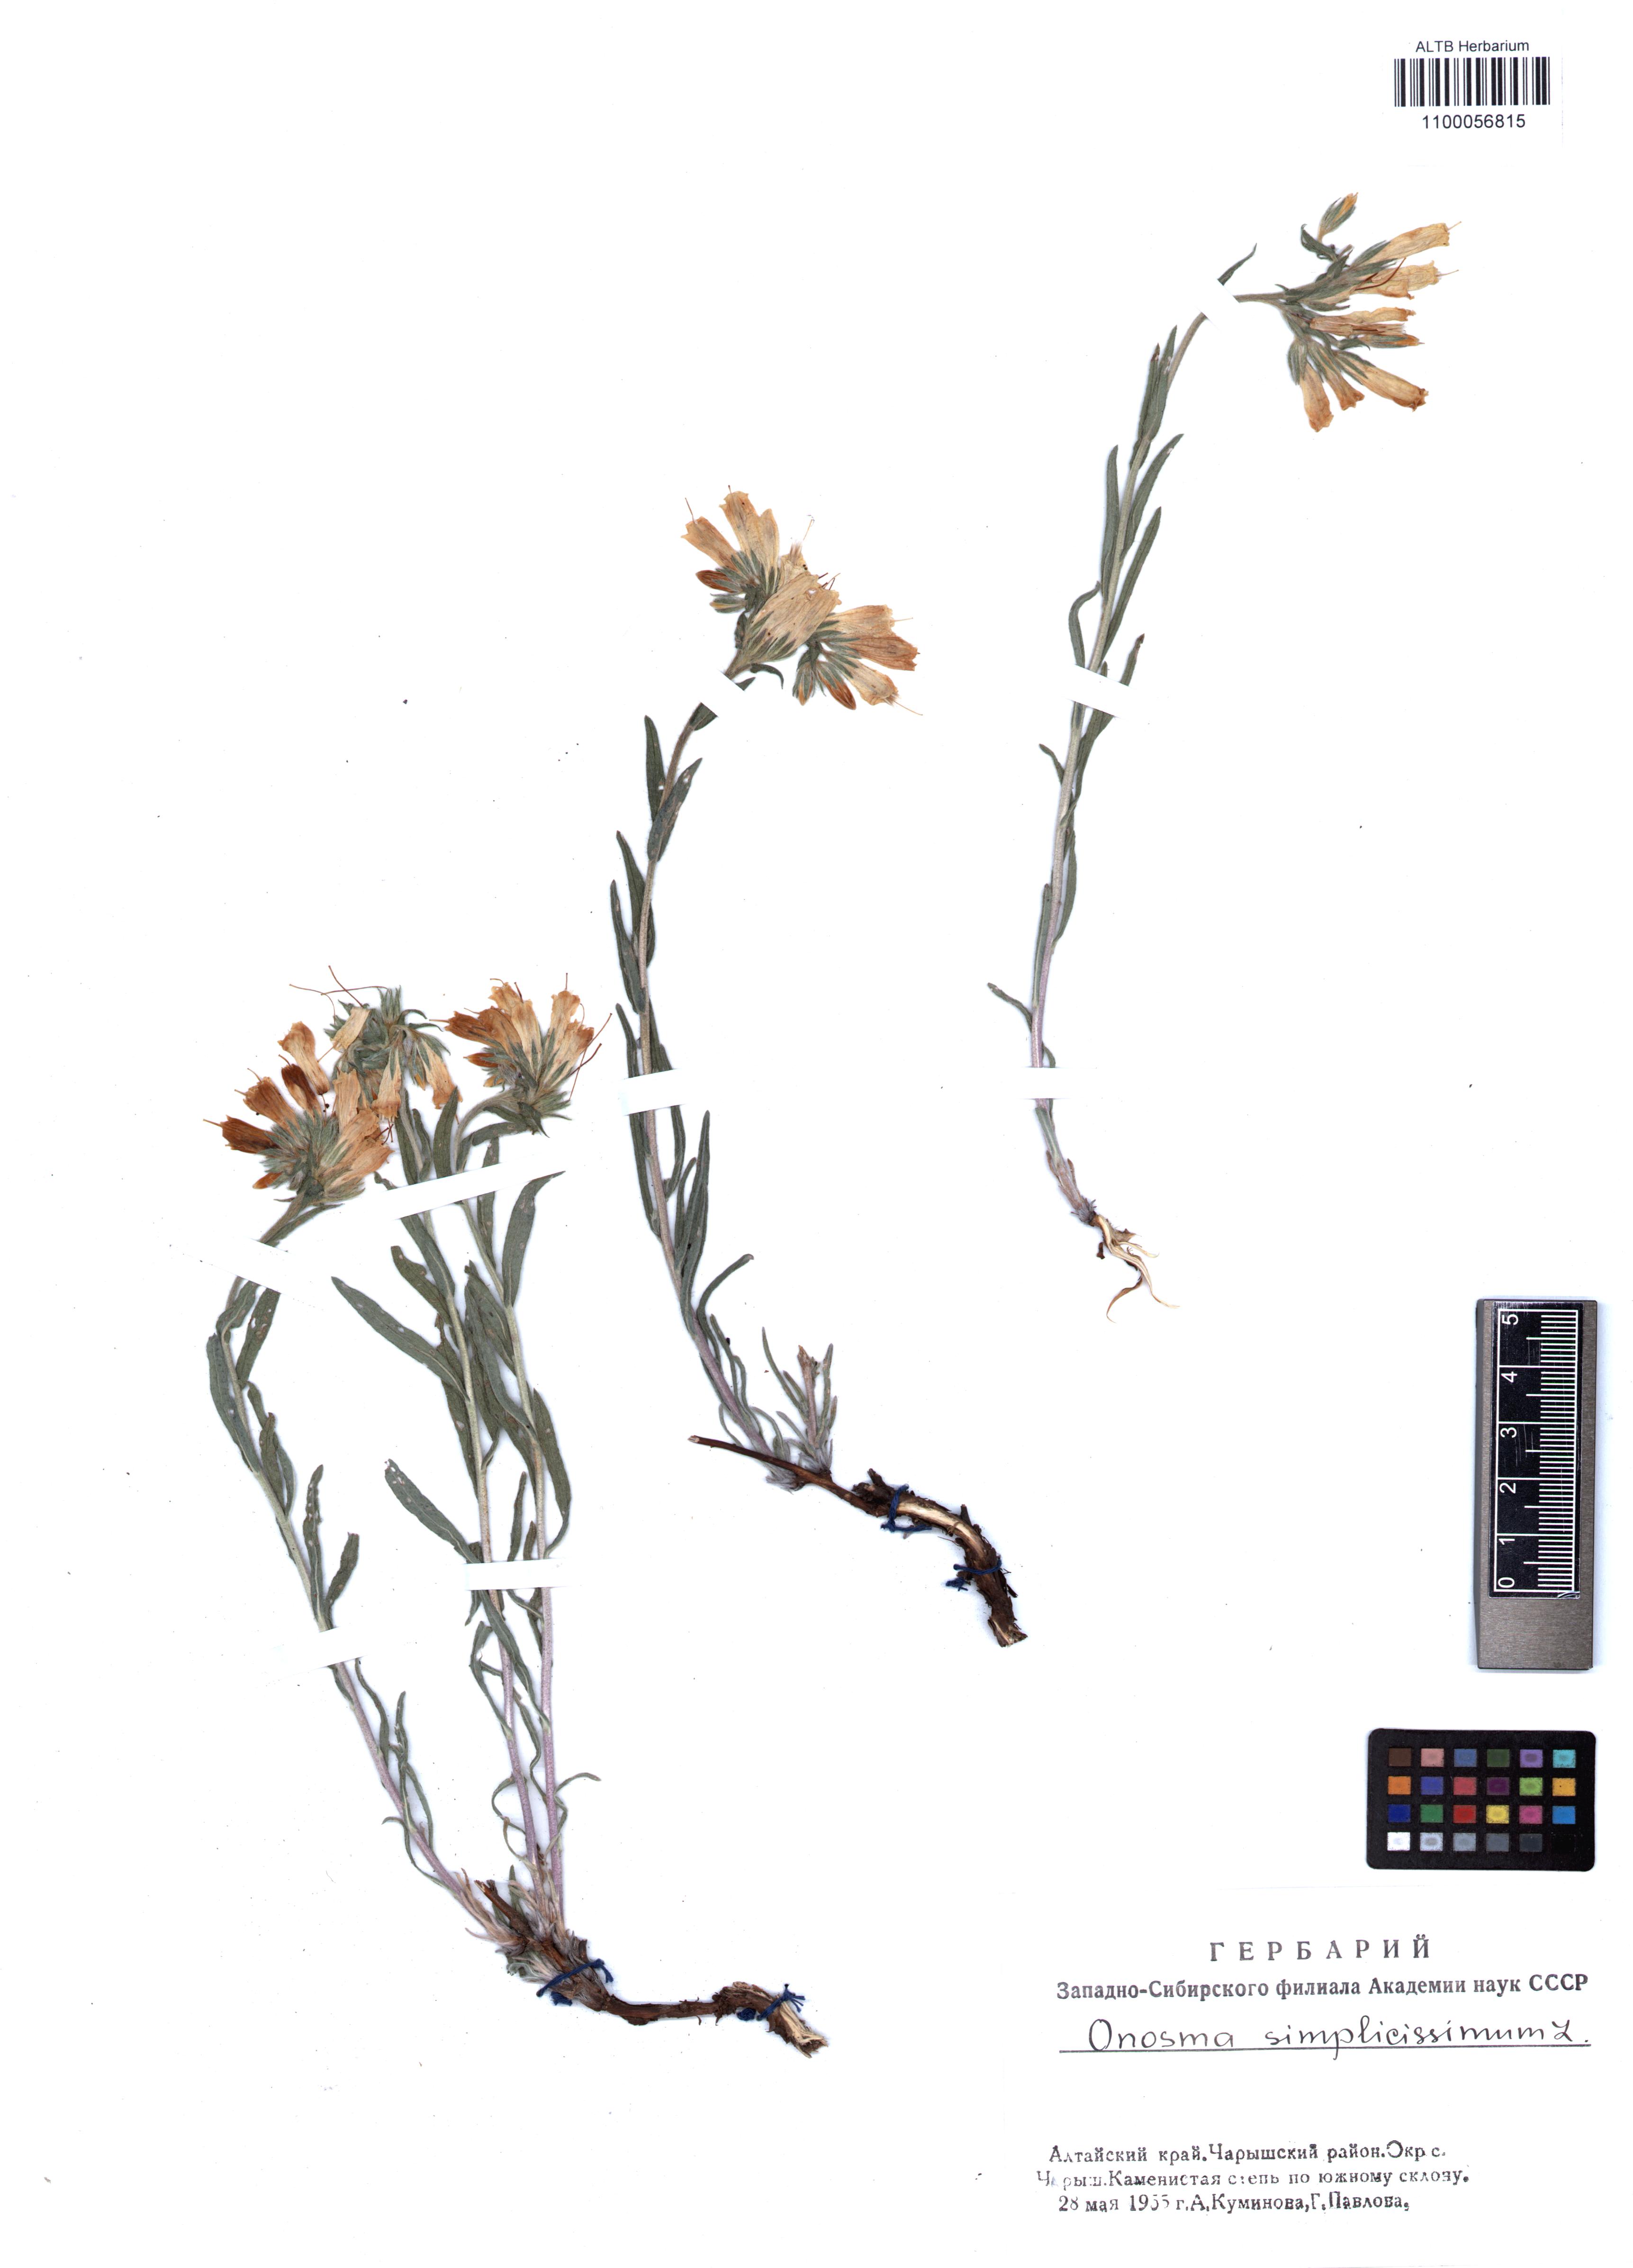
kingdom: Plantae
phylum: Tracheophyta
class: Magnoliopsida
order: Boraginales
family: Boraginaceae
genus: Onosma
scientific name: Onosma simplicissima
